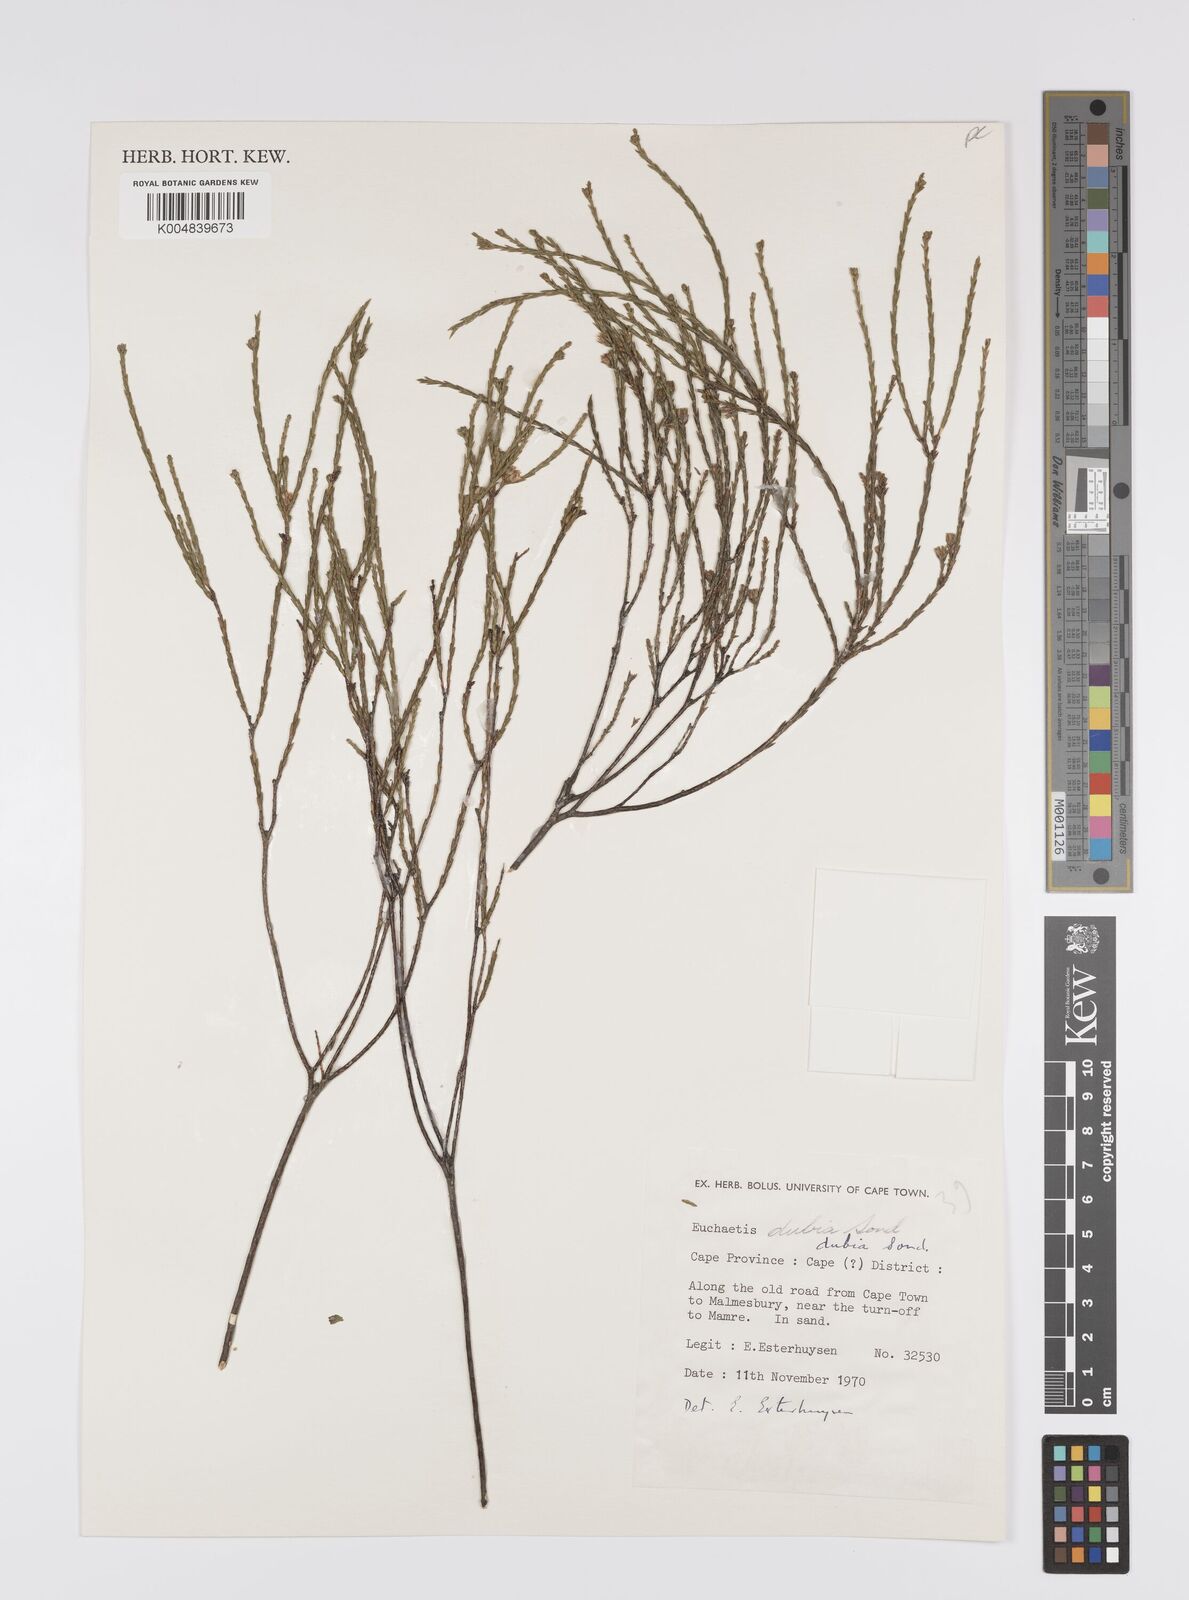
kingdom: Plantae
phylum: Tracheophyta
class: Magnoliopsida
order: Sapindales
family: Rutaceae
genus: Macrostylis
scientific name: Macrostylis cassiopoides
